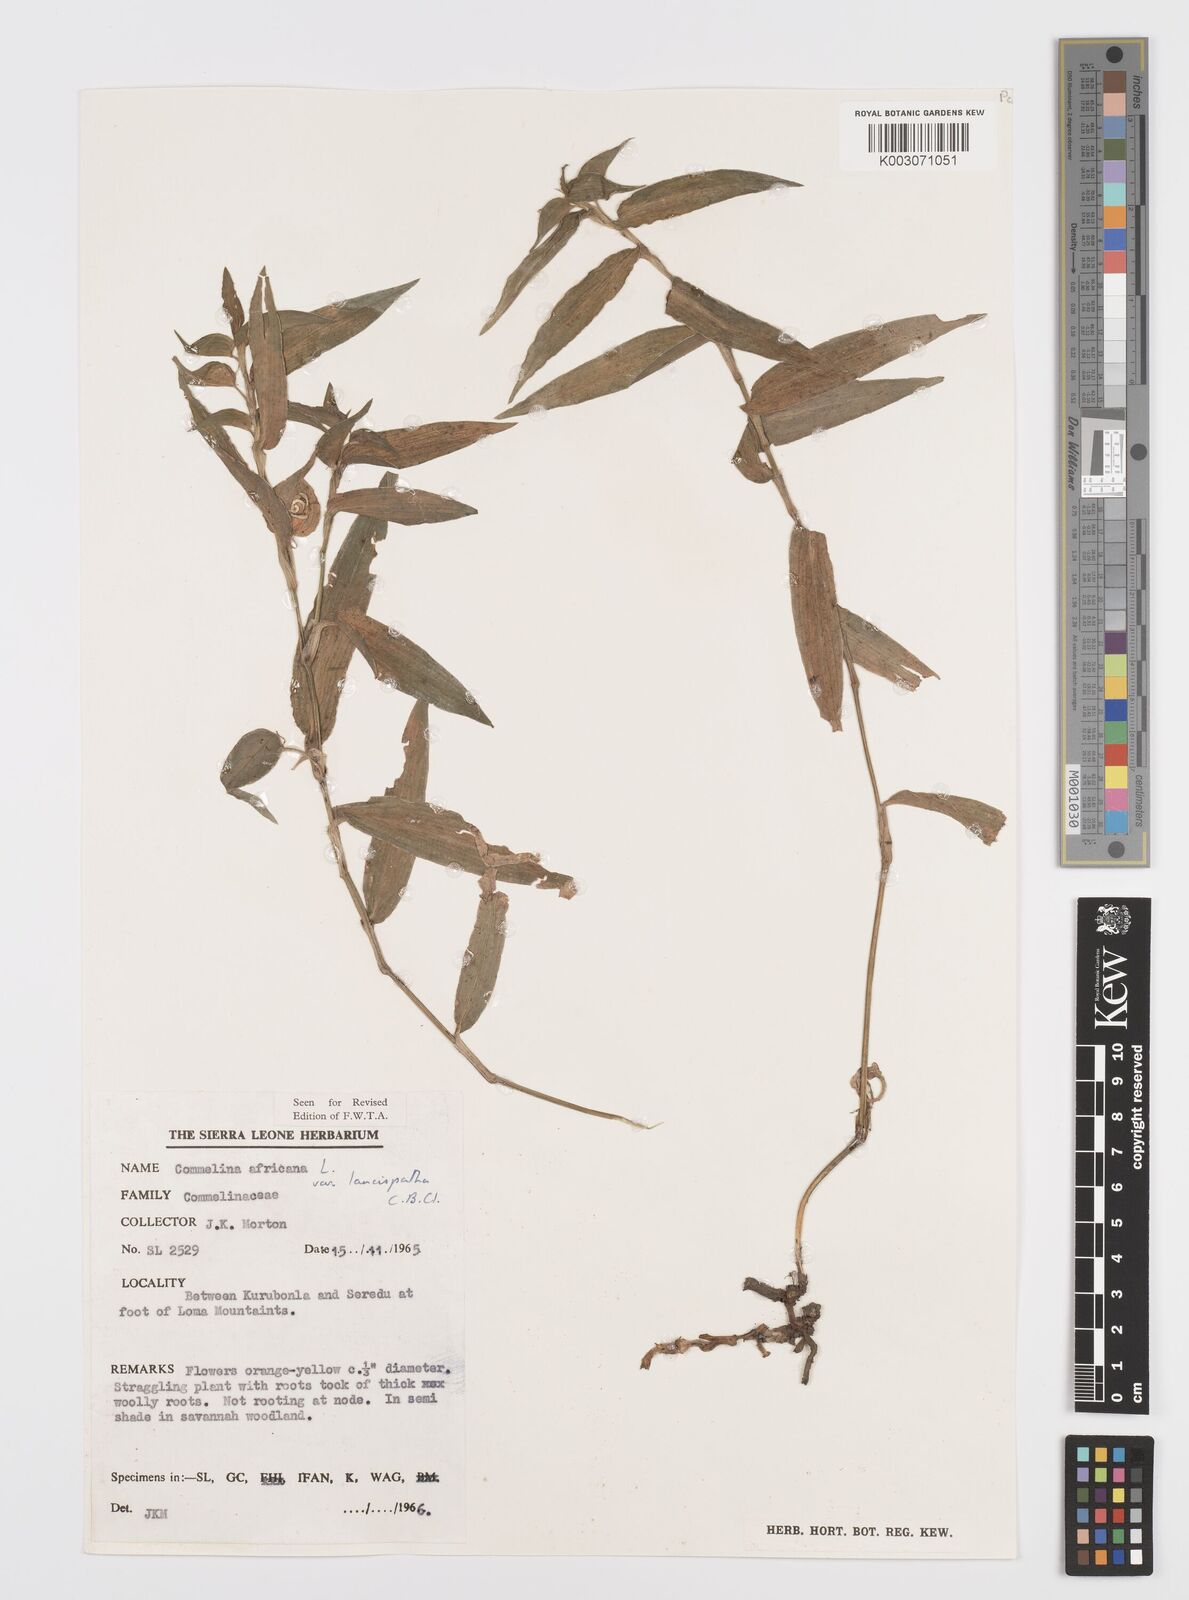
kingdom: Plantae
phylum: Tracheophyta
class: Liliopsida
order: Commelinales
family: Commelinaceae
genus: Commelina
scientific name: Commelina africana
